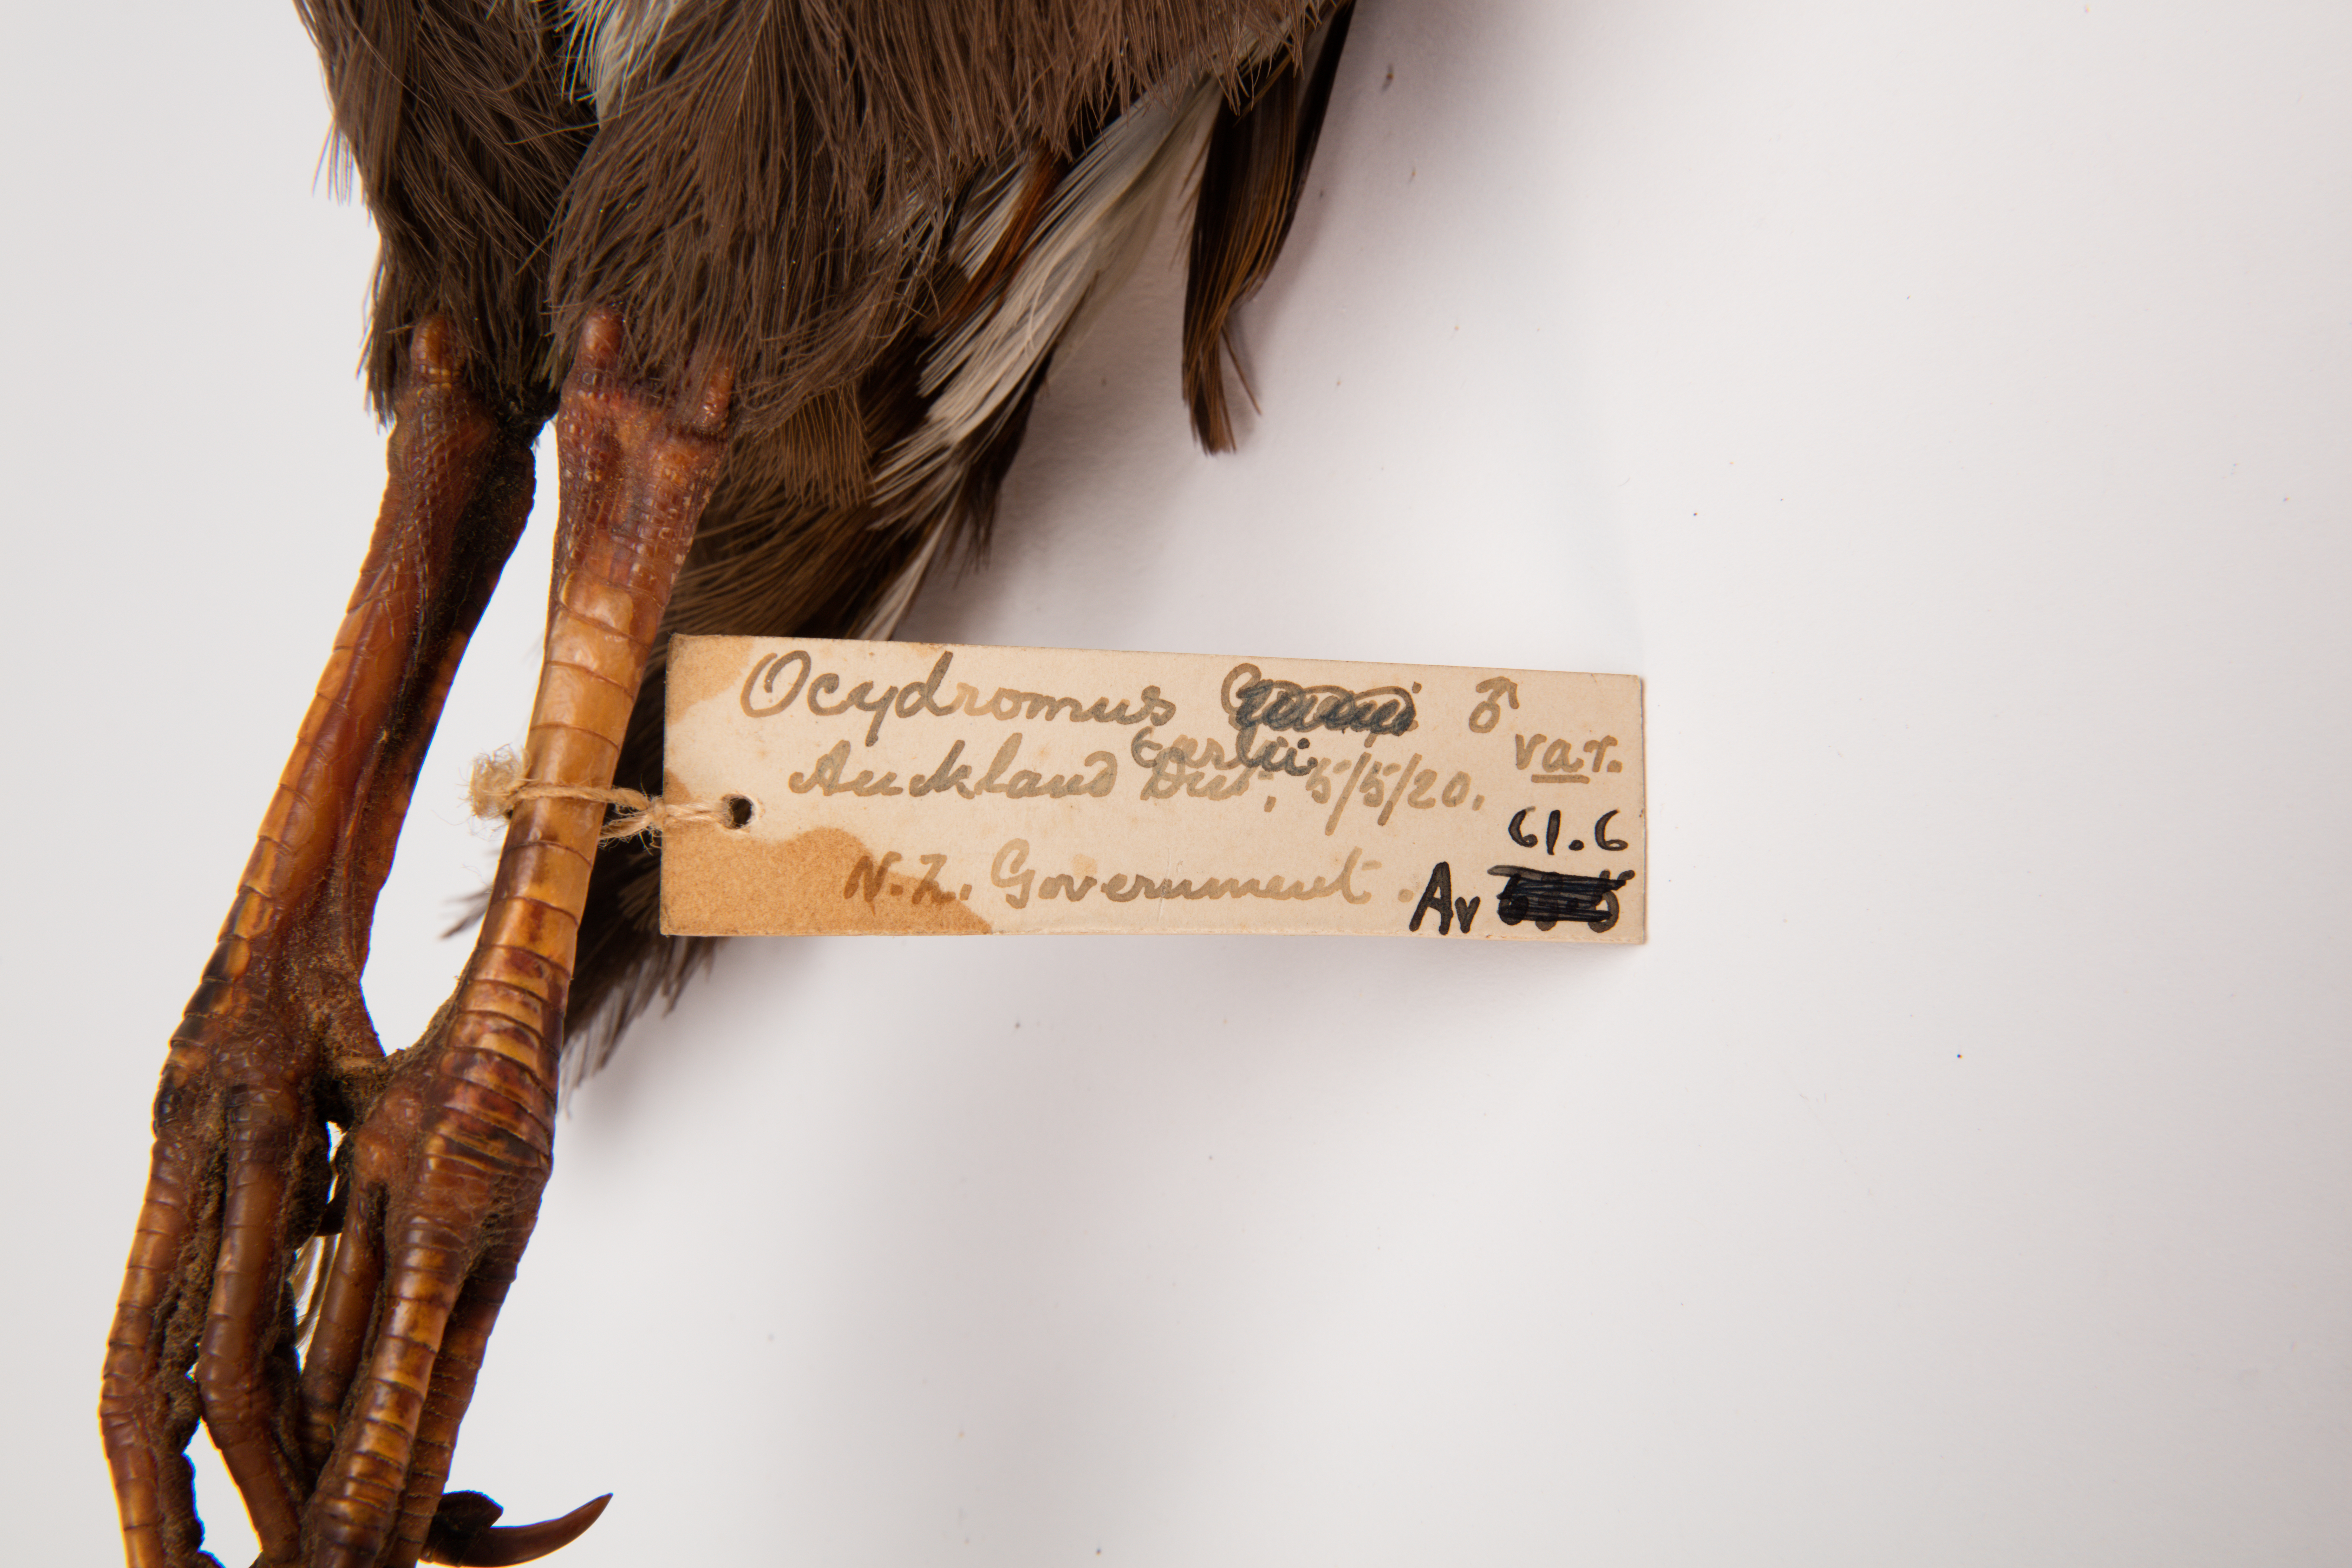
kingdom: Animalia
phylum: Chordata
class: Aves
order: Gruiformes
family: Rallidae
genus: Gallirallus
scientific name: Gallirallus australis
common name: Weka
